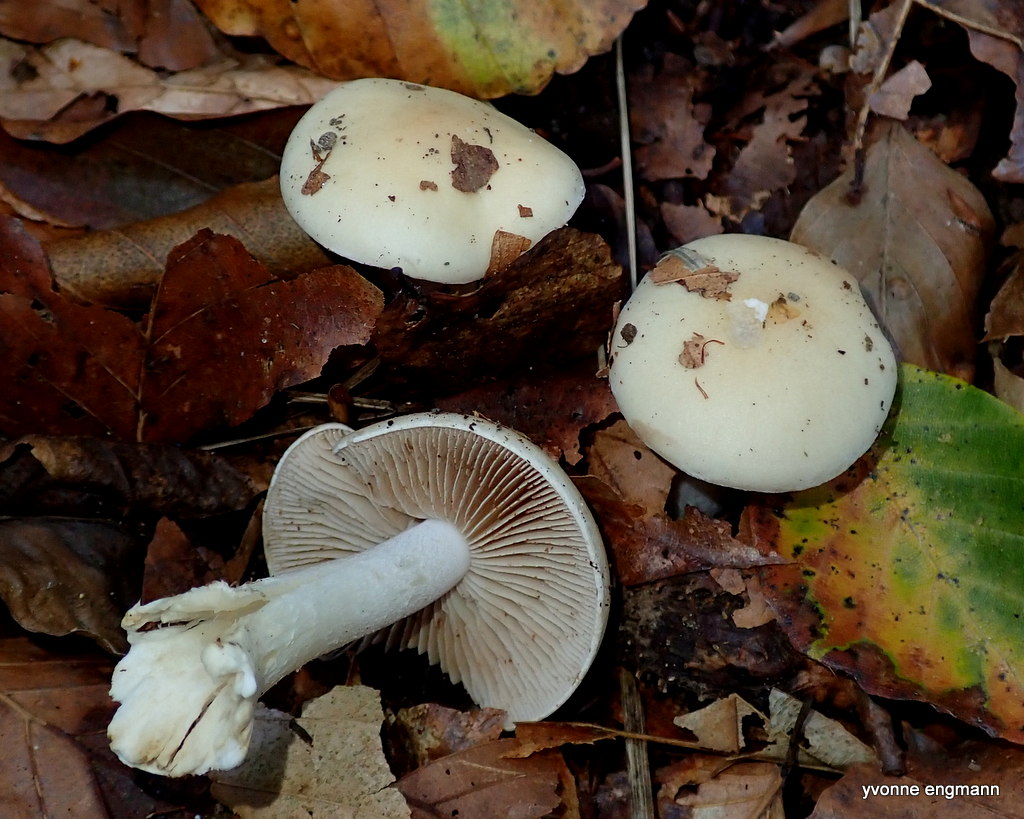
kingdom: Fungi
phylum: Basidiomycota
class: Agaricomycetes
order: Agaricales
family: Hymenogastraceae
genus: Hebeloma
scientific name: Hebeloma
